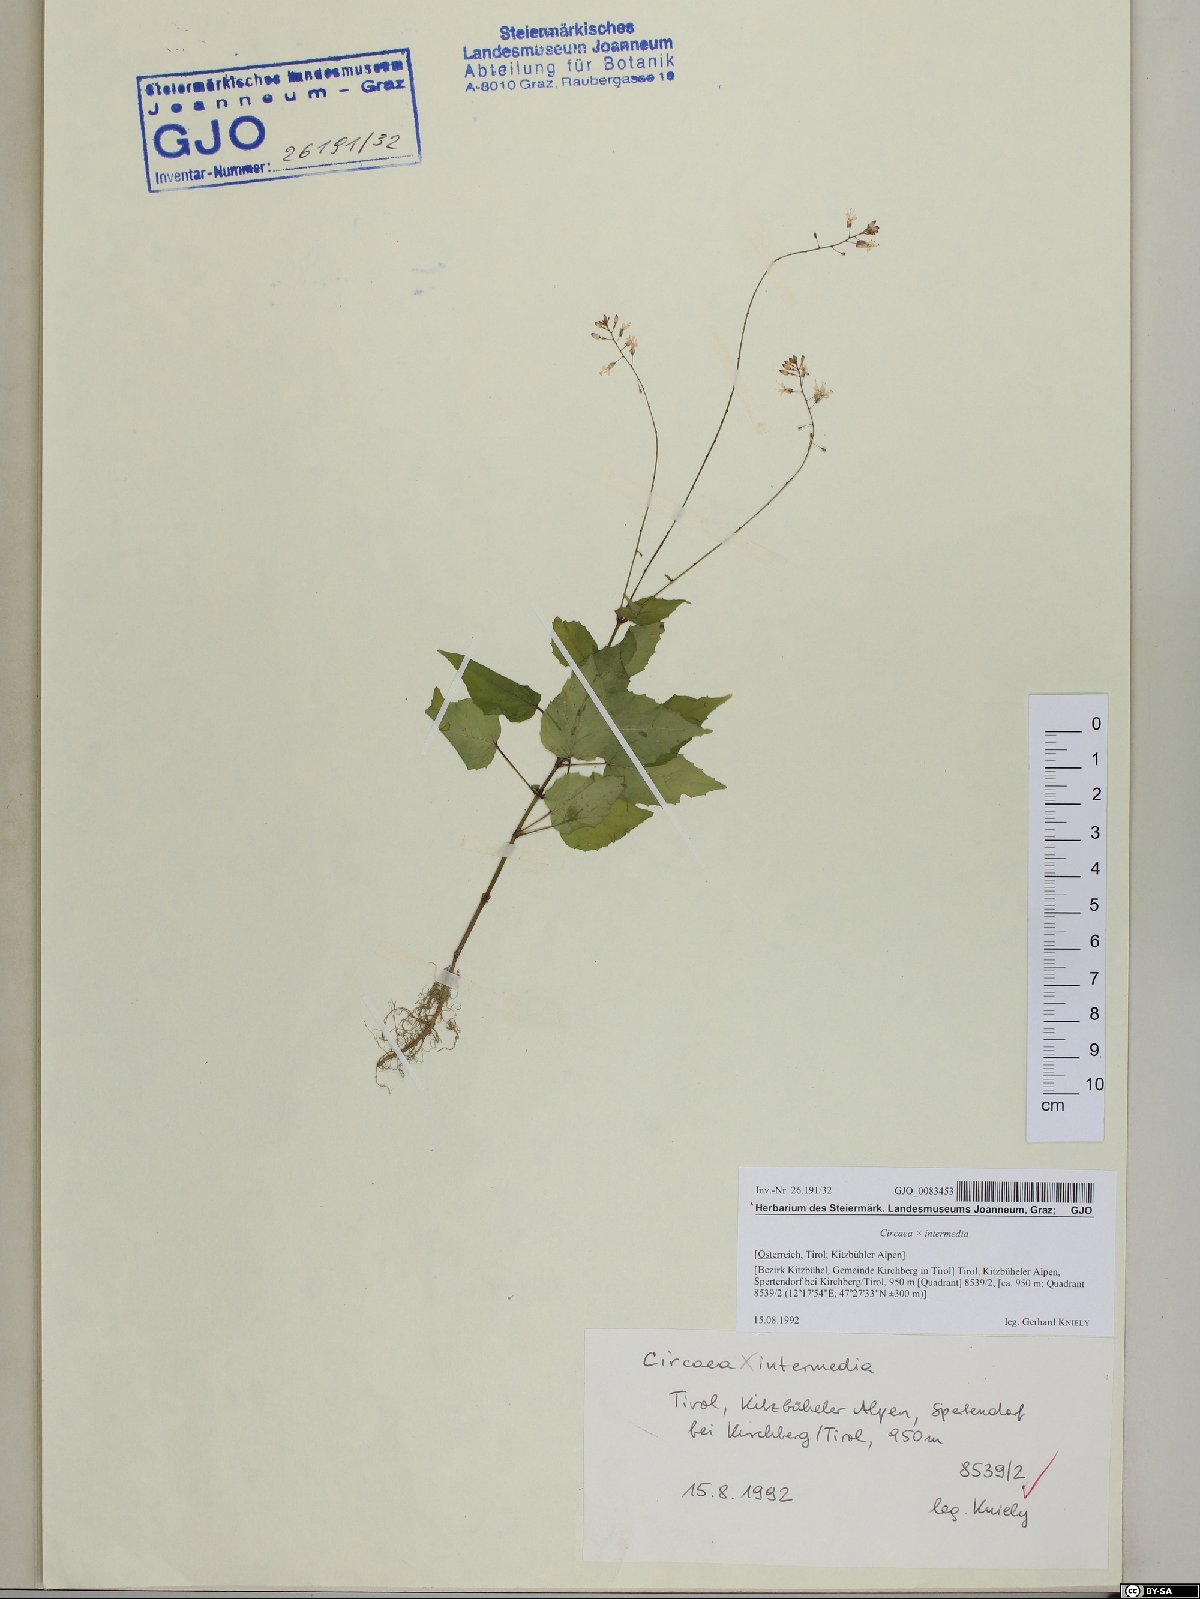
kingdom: Plantae
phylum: Tracheophyta
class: Magnoliopsida
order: Myrtales
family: Onagraceae
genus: Circaea
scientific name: Circaea intermedia
